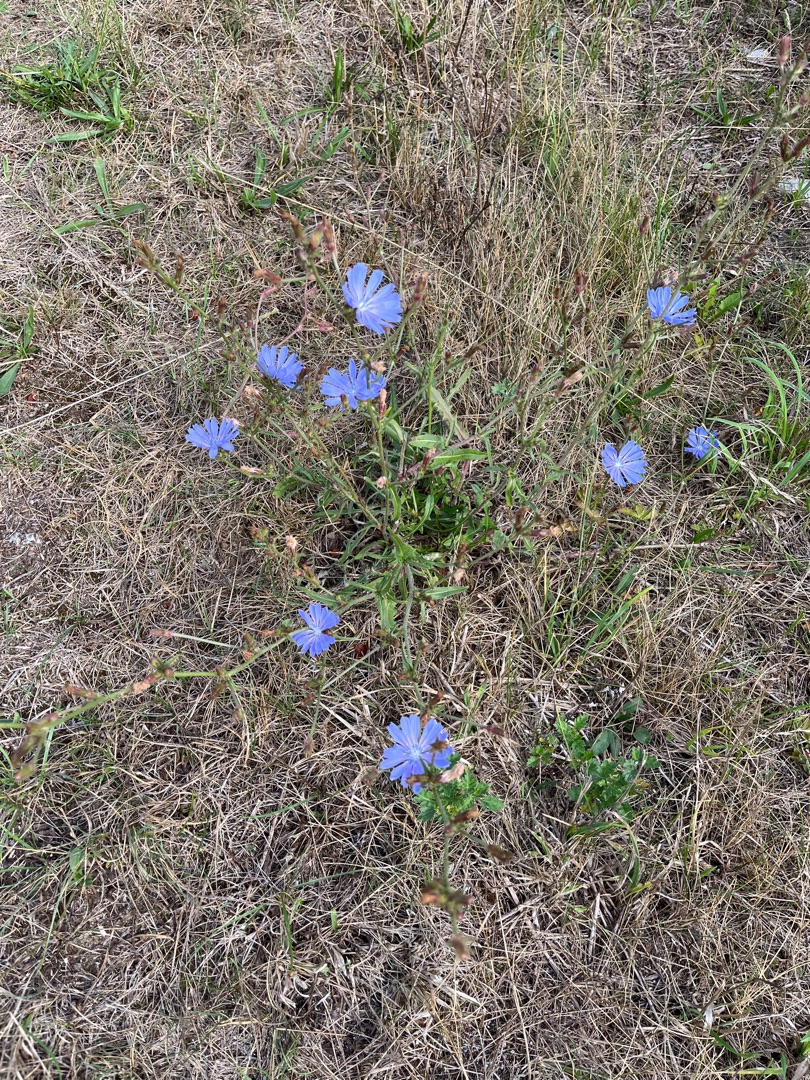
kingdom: Plantae
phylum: Tracheophyta
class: Magnoliopsida
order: Asterales
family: Asteraceae
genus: Cichorium
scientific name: Cichorium intybus
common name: Cikorie
